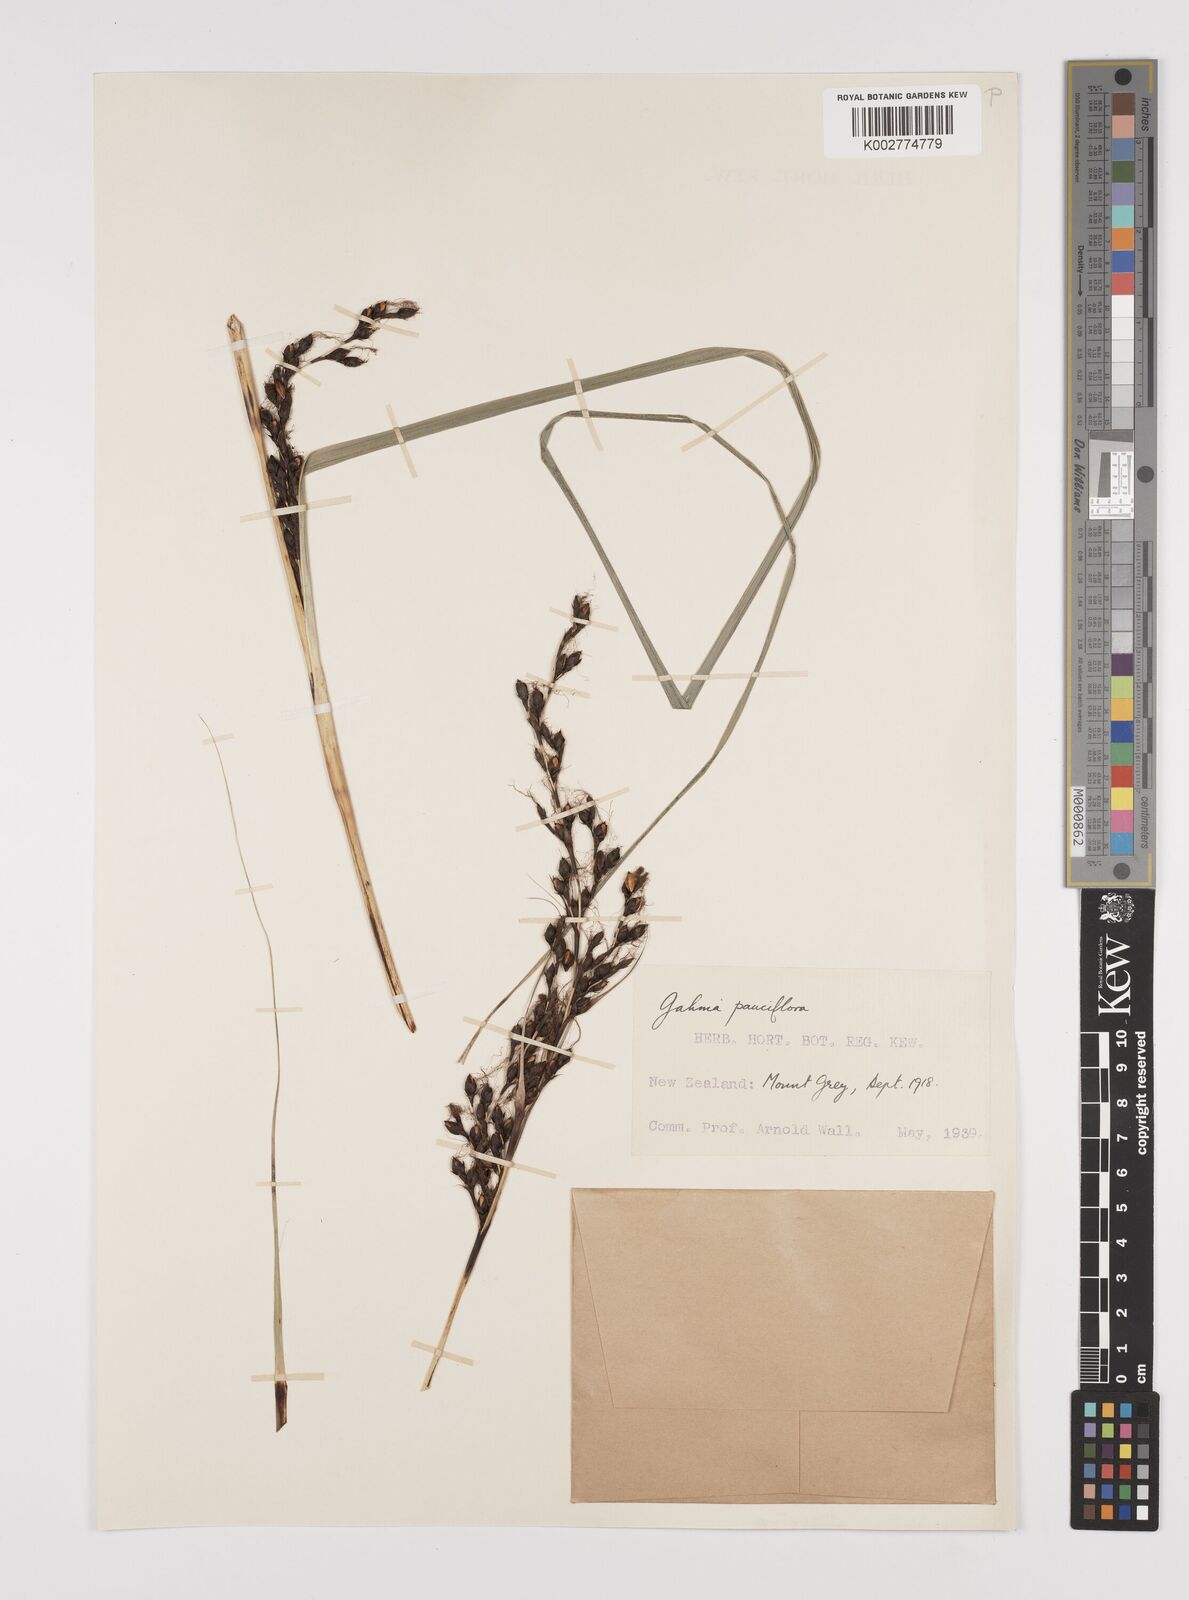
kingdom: Plantae
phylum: Tracheophyta
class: Liliopsida
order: Poales
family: Cyperaceae
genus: Gahnia
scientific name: Gahnia pauciflora
